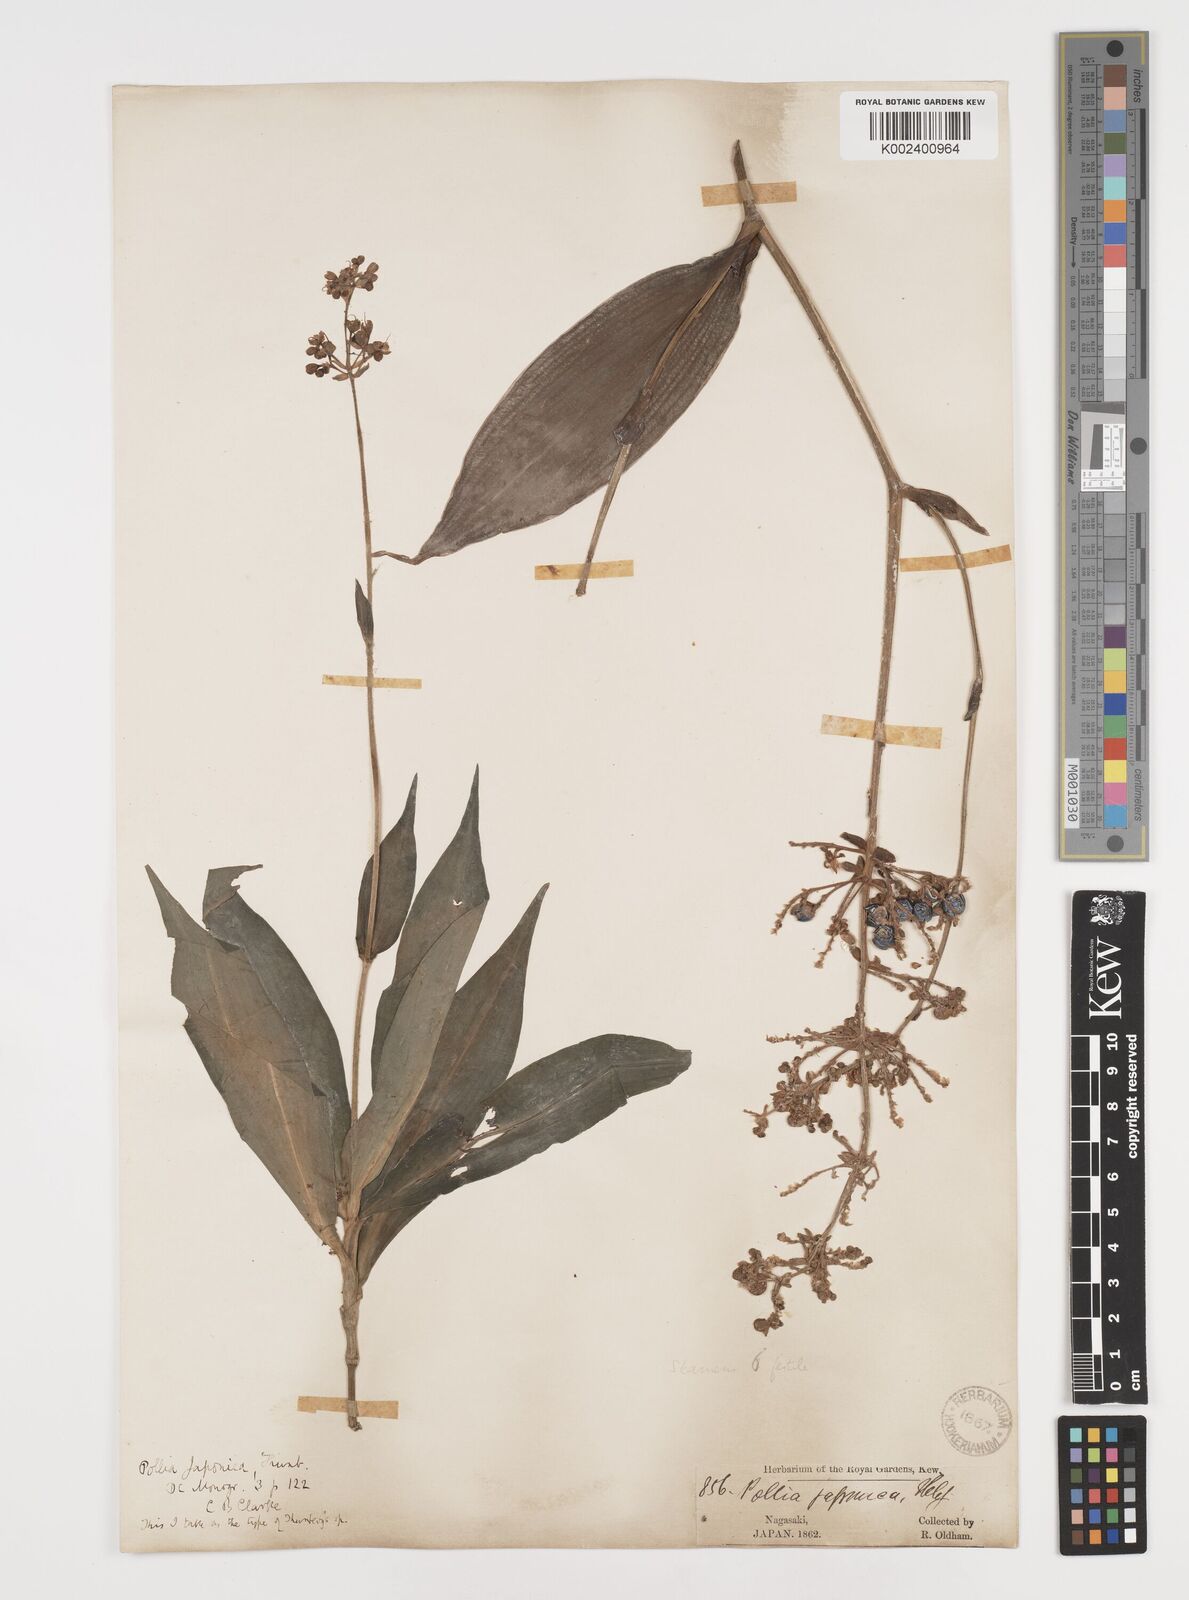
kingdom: Plantae
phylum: Tracheophyta
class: Liliopsida
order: Commelinales
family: Commelinaceae
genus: Pollia
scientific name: Pollia japonica
